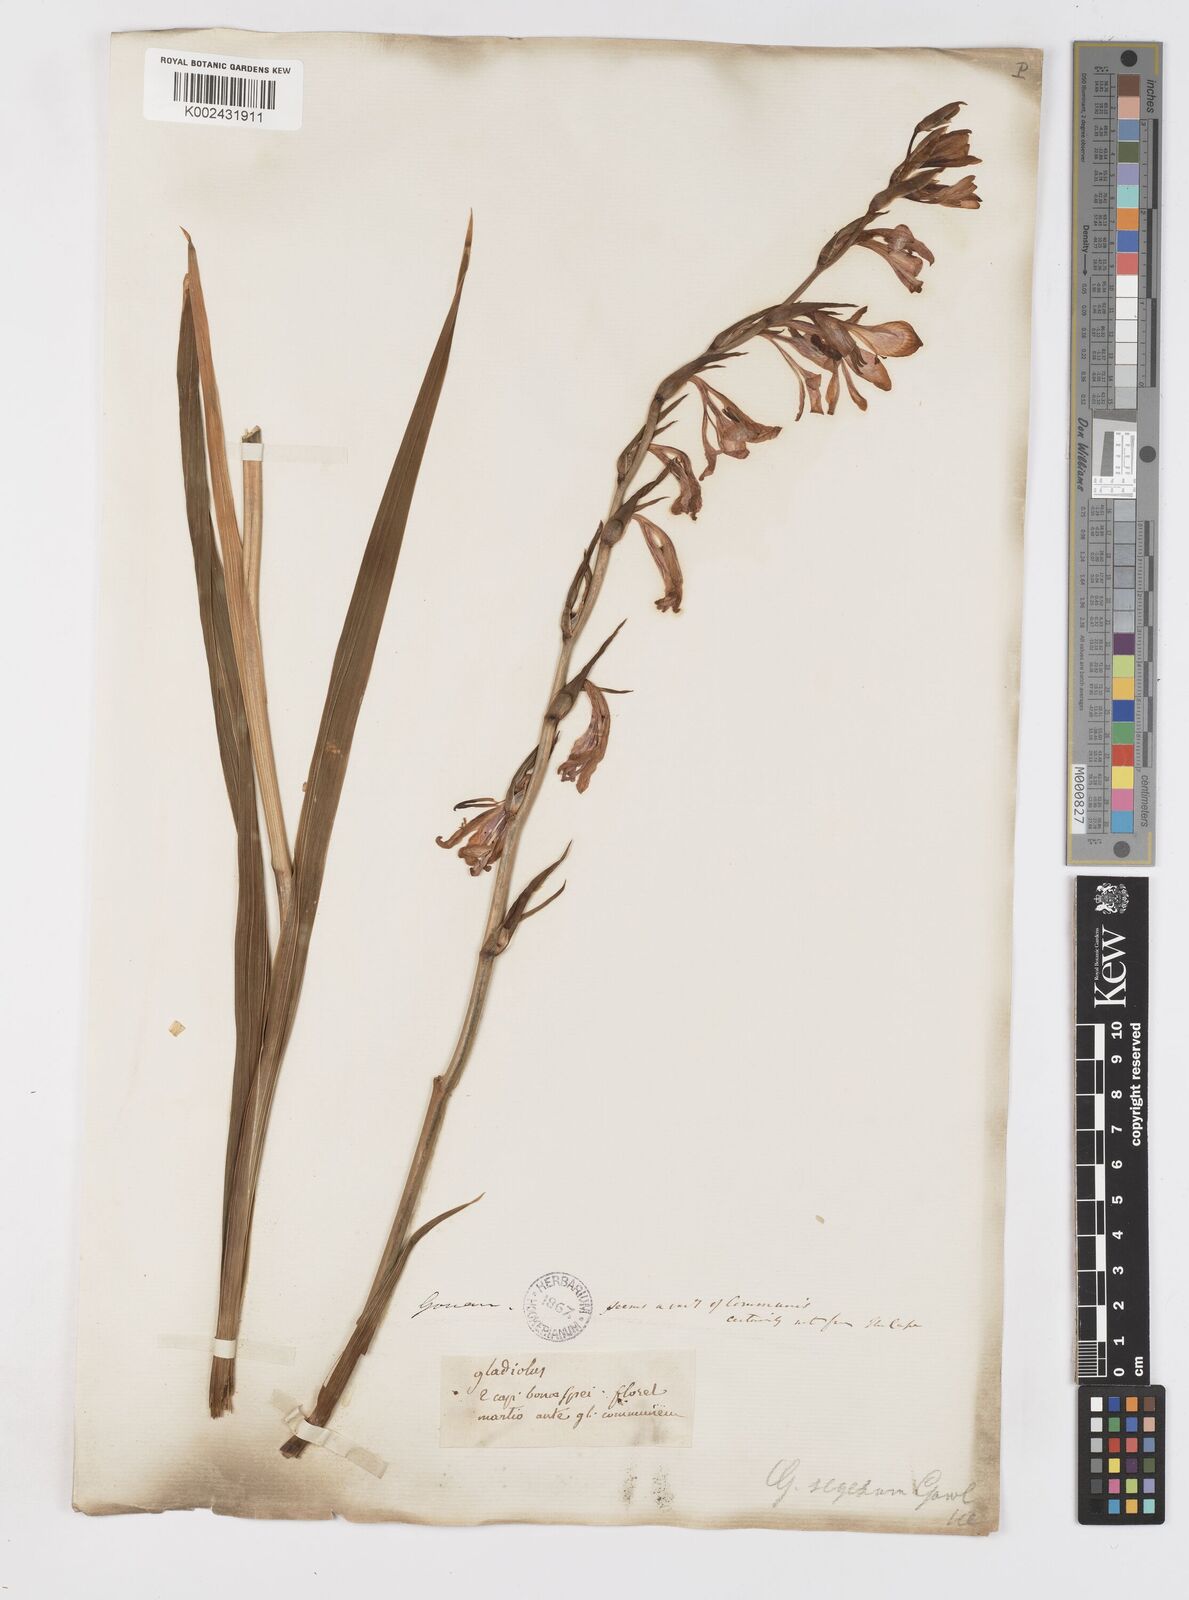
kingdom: Plantae
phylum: Tracheophyta
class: Liliopsida
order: Asparagales
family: Iridaceae
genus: Gladiolus
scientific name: Gladiolus italicus
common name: Field gladiolus
